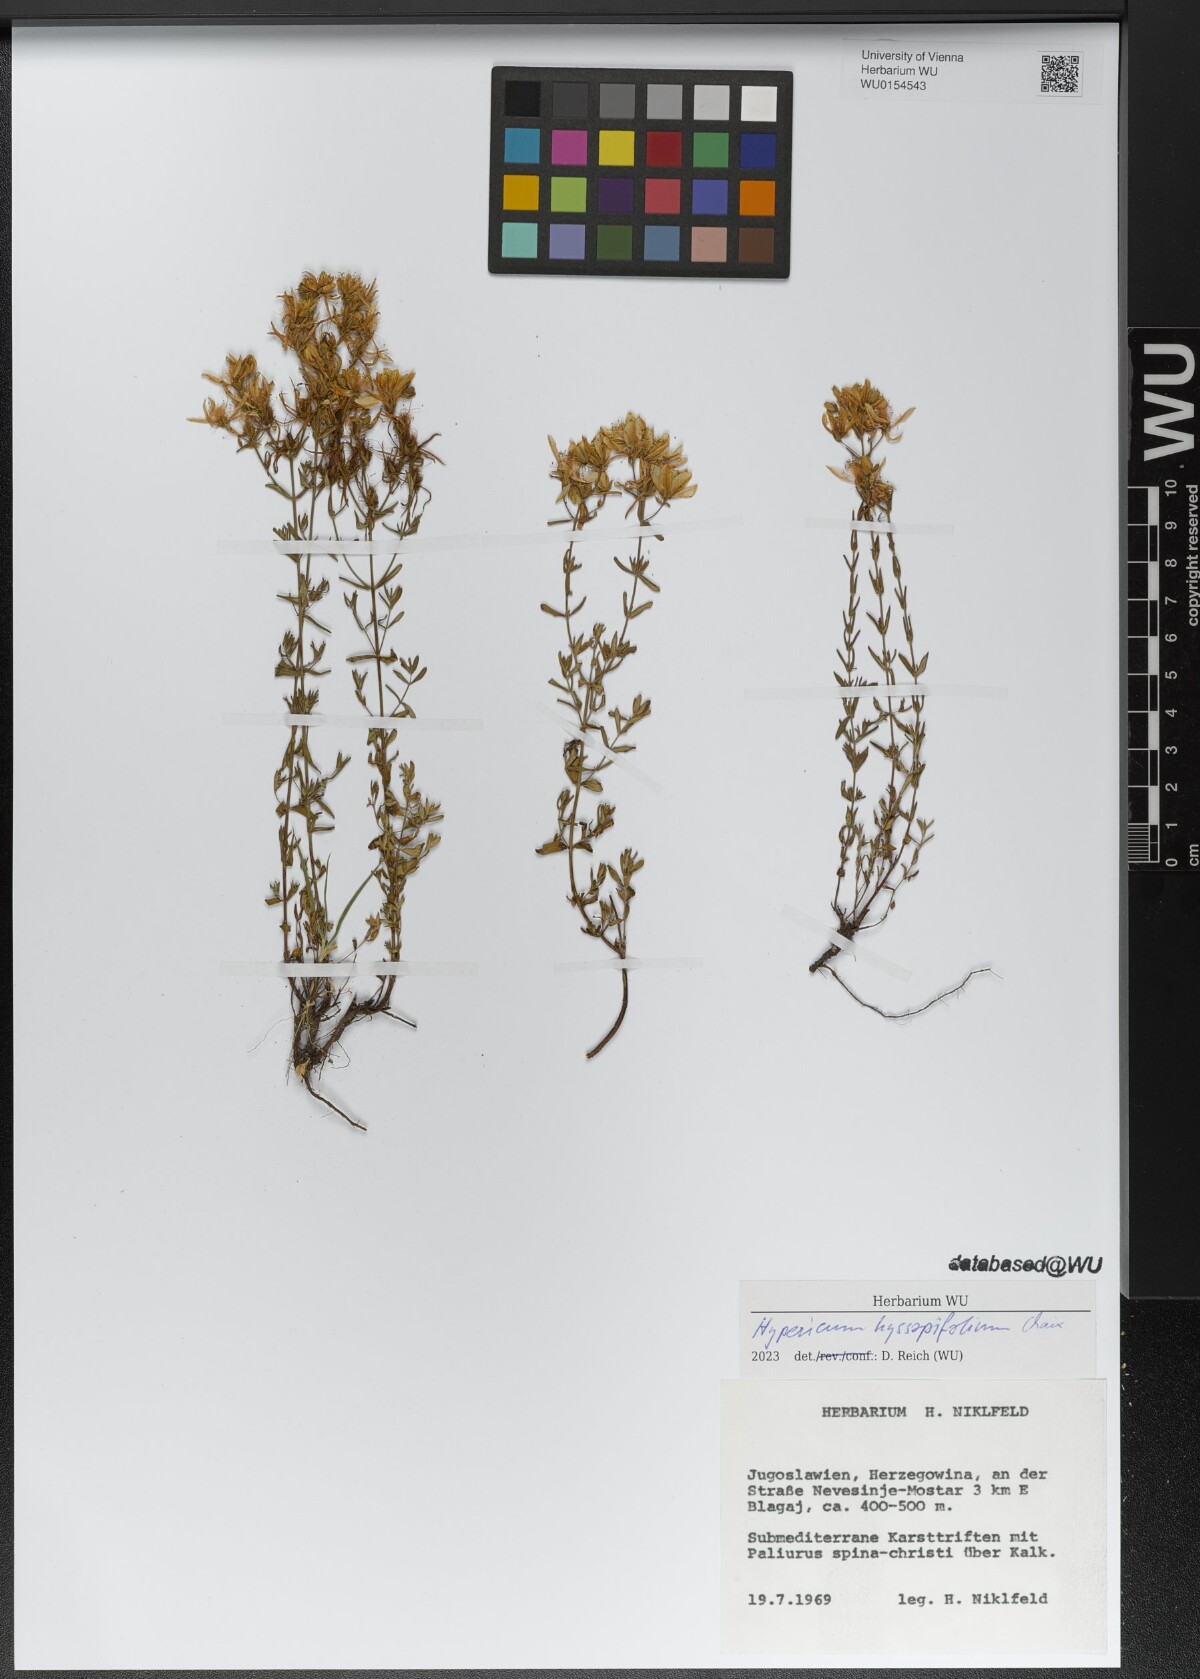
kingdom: Plantae
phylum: Tracheophyta
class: Magnoliopsida
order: Malpighiales
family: Hypericaceae
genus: Hypericum
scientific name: Hypericum hyssopifolium
